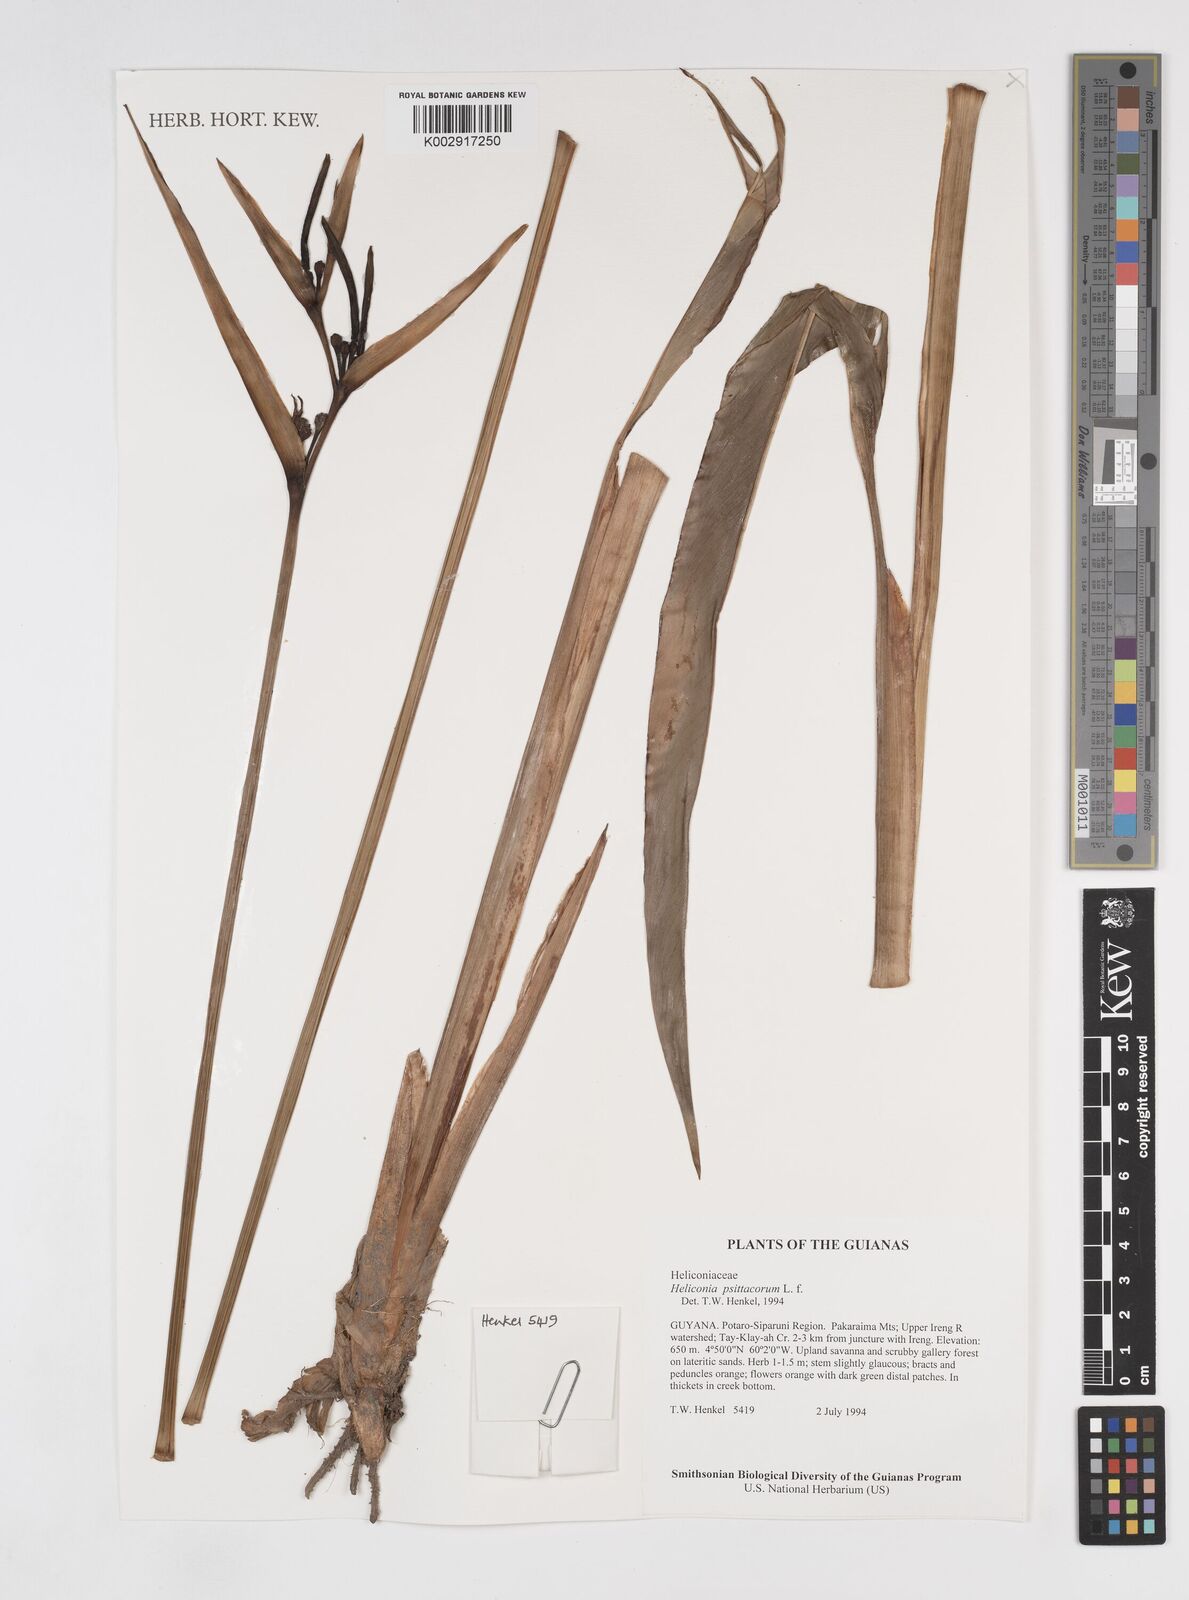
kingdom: Plantae
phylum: Tracheophyta
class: Liliopsida
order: Zingiberales
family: Heliconiaceae
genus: Heliconia
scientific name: Heliconia psittacorum
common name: Parrot's-flower
